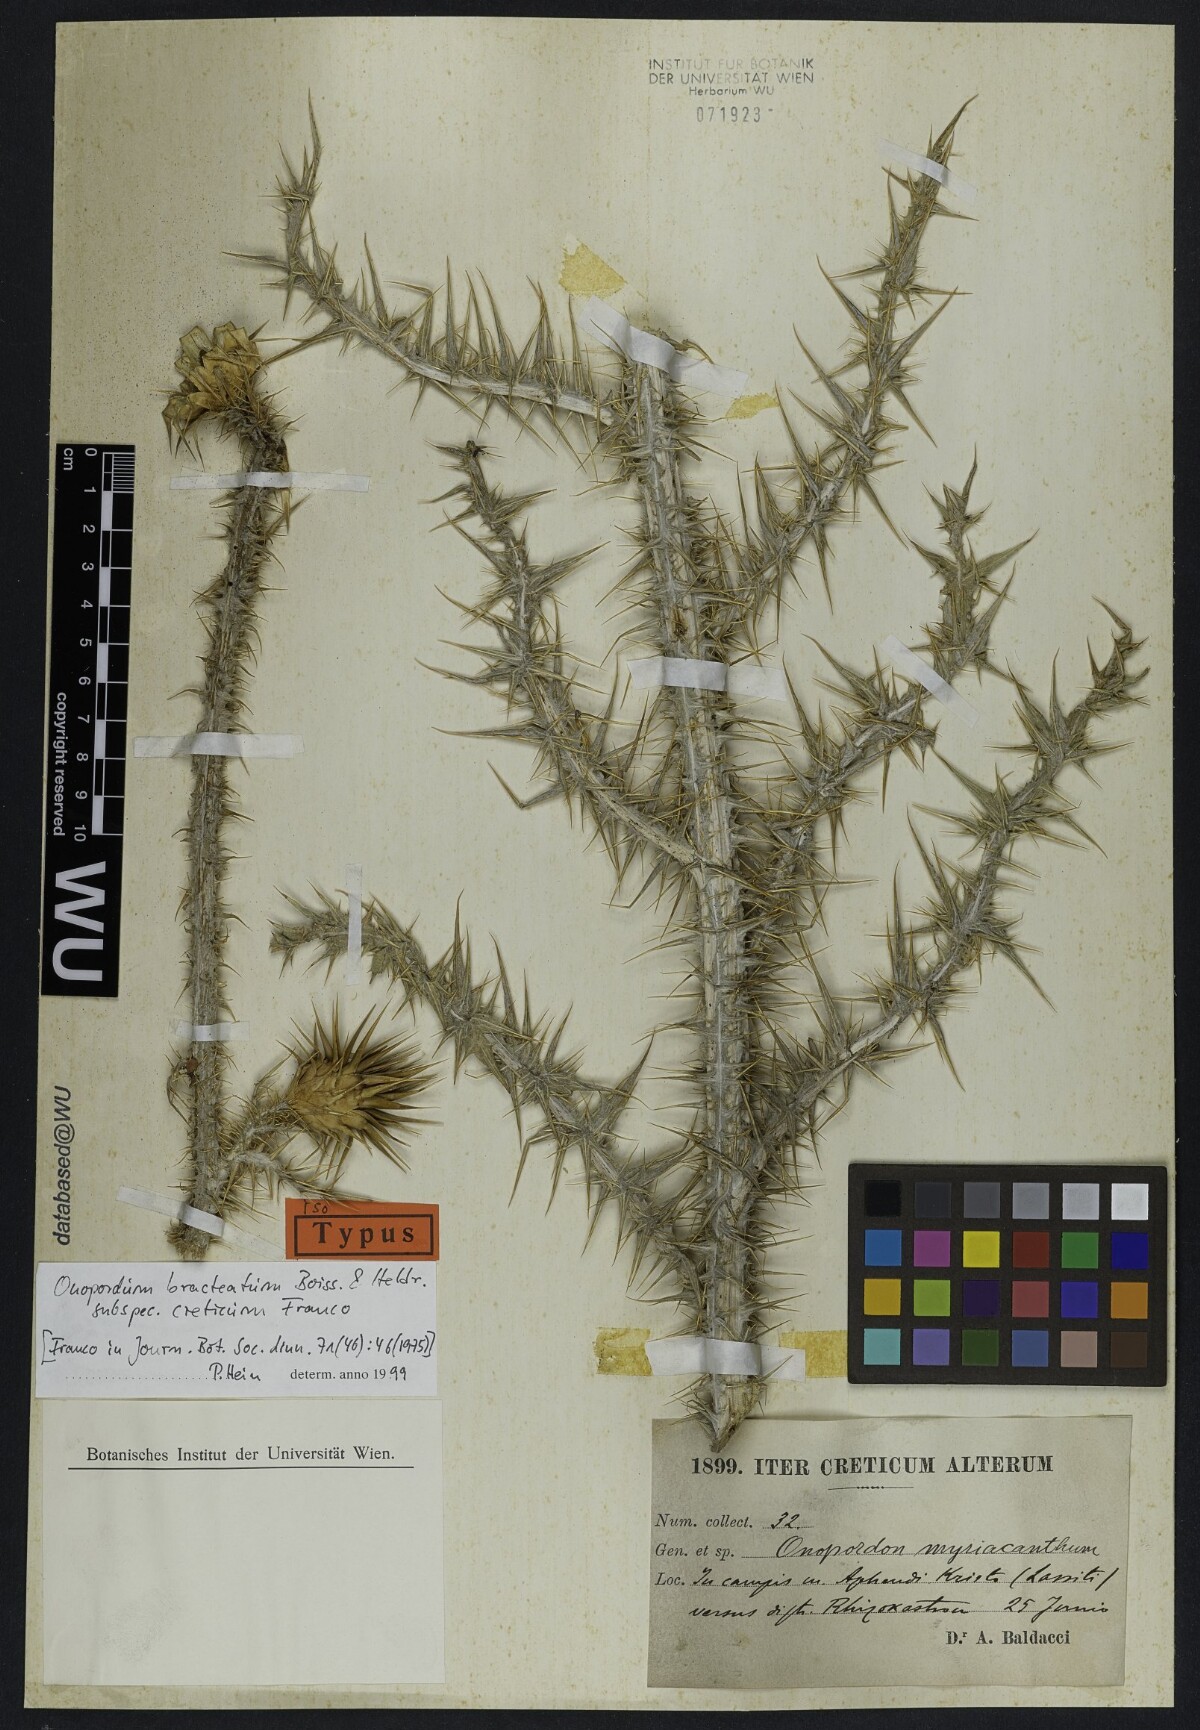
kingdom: Plantae
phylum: Tracheophyta
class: Magnoliopsida
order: Asterales
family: Asteraceae
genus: Onopordum
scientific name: Onopordum bracteatum
